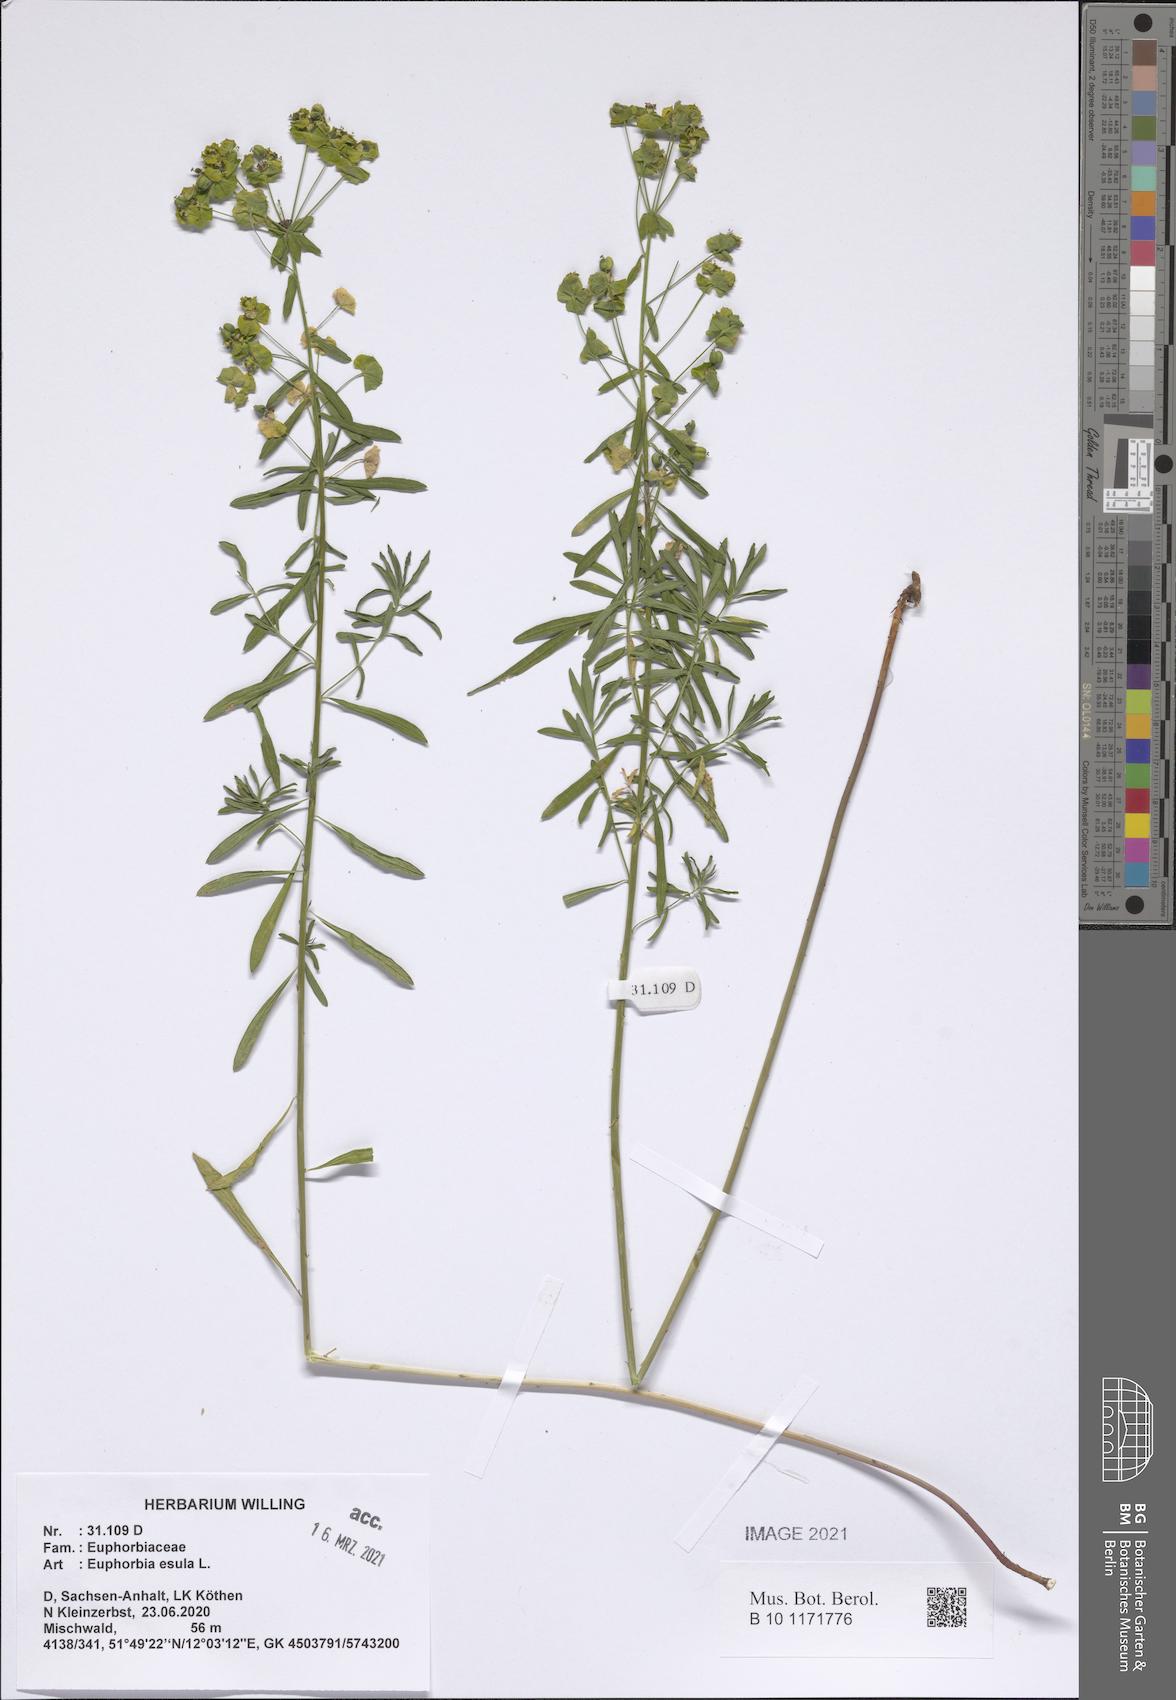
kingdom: Plantae
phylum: Tracheophyta
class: Magnoliopsida
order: Malpighiales
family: Euphorbiaceae
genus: Euphorbia
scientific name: Euphorbia esula
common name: Leafy spurge
